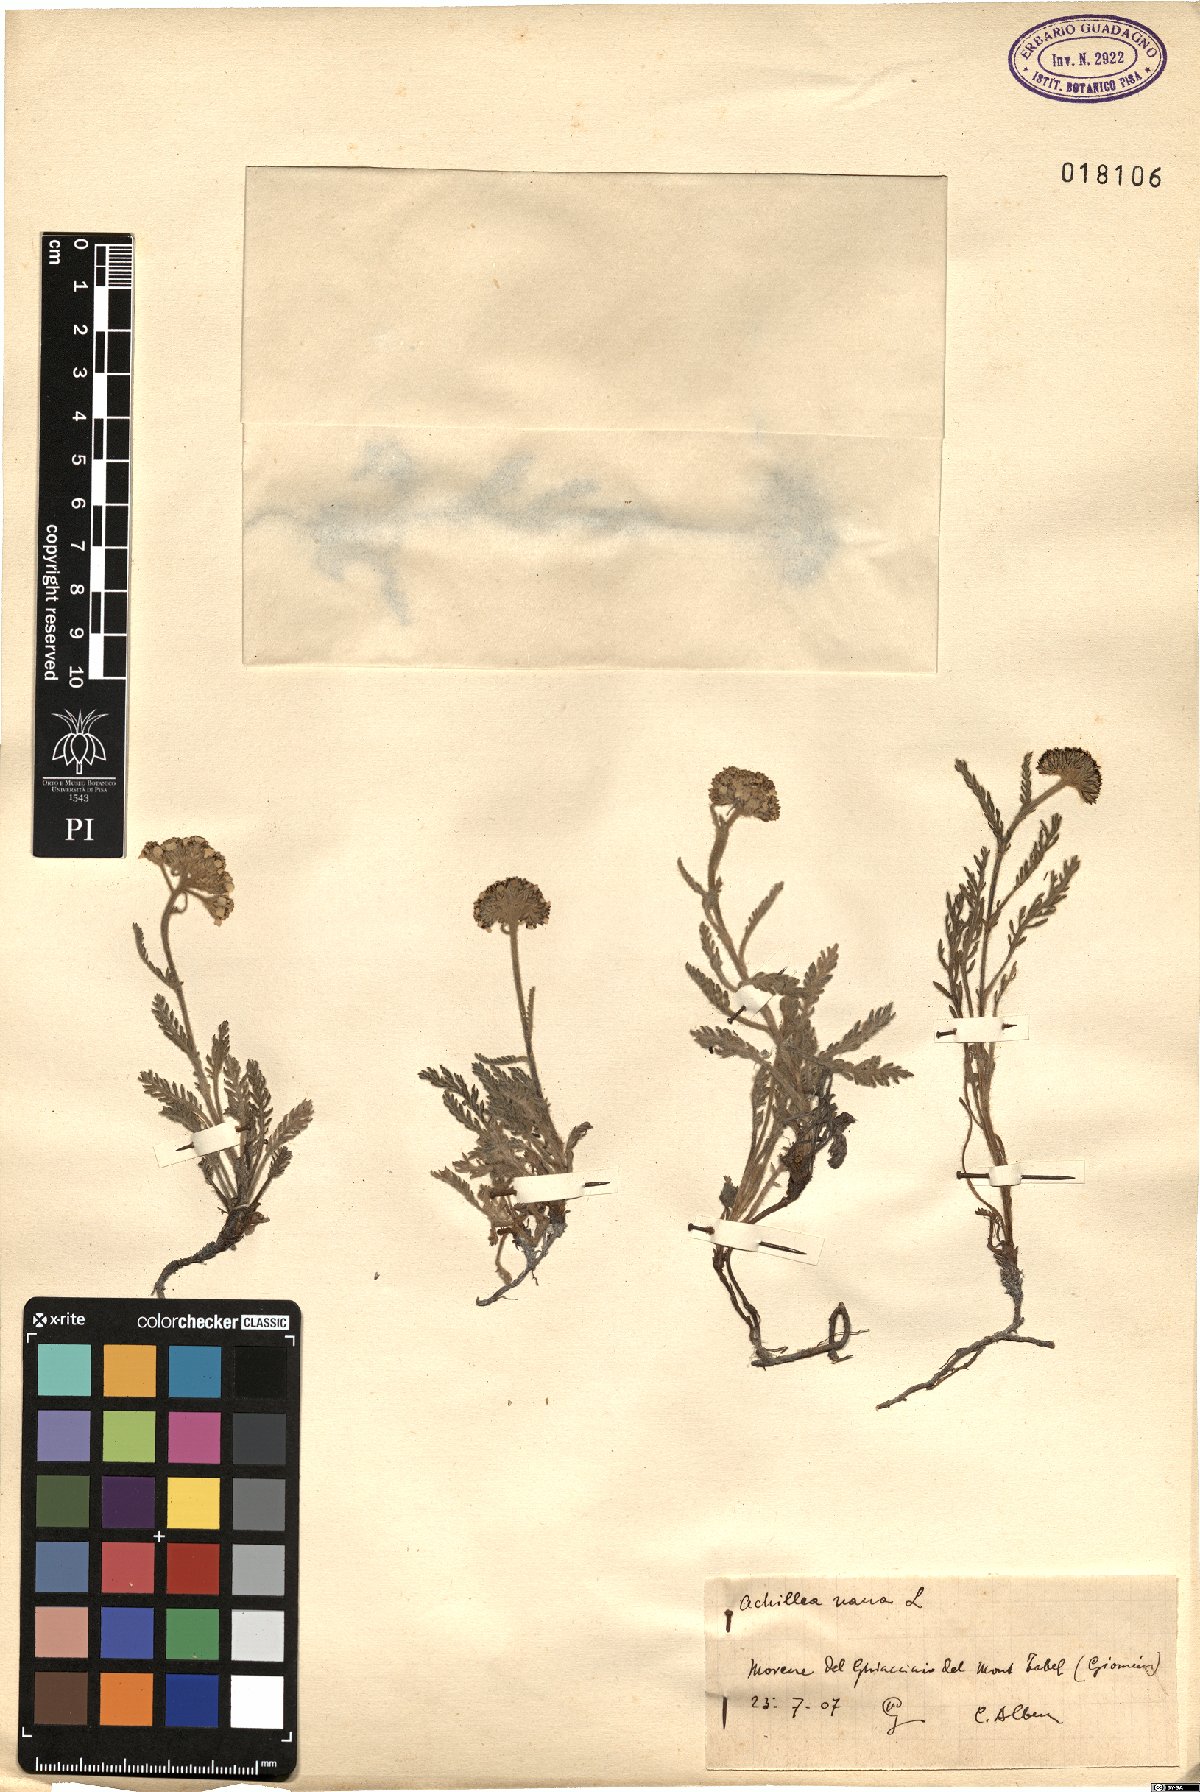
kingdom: Plantae
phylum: Tracheophyta
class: Magnoliopsida
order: Asterales
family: Asteraceae
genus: Achillea
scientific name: Achillea nana
